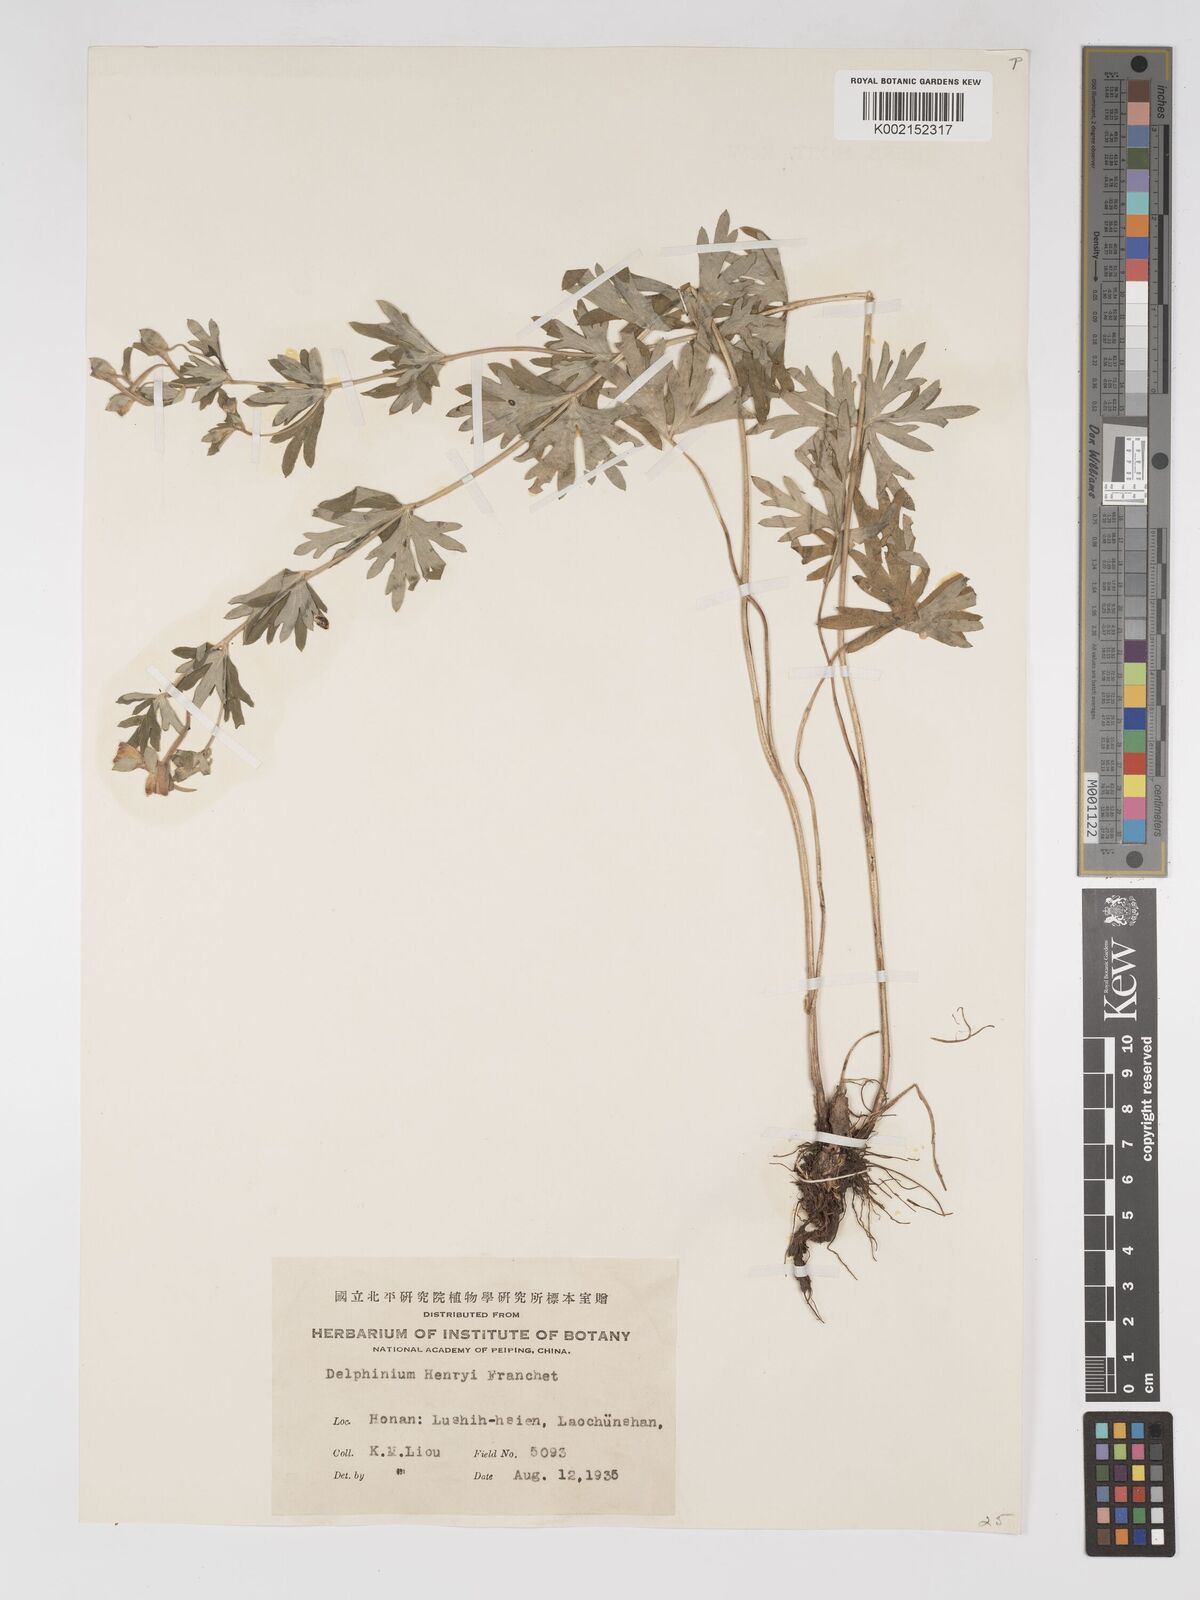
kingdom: Plantae
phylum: Tracheophyta
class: Magnoliopsida
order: Ranunculales
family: Ranunculaceae
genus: Delphinium
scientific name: Delphinium henryi
